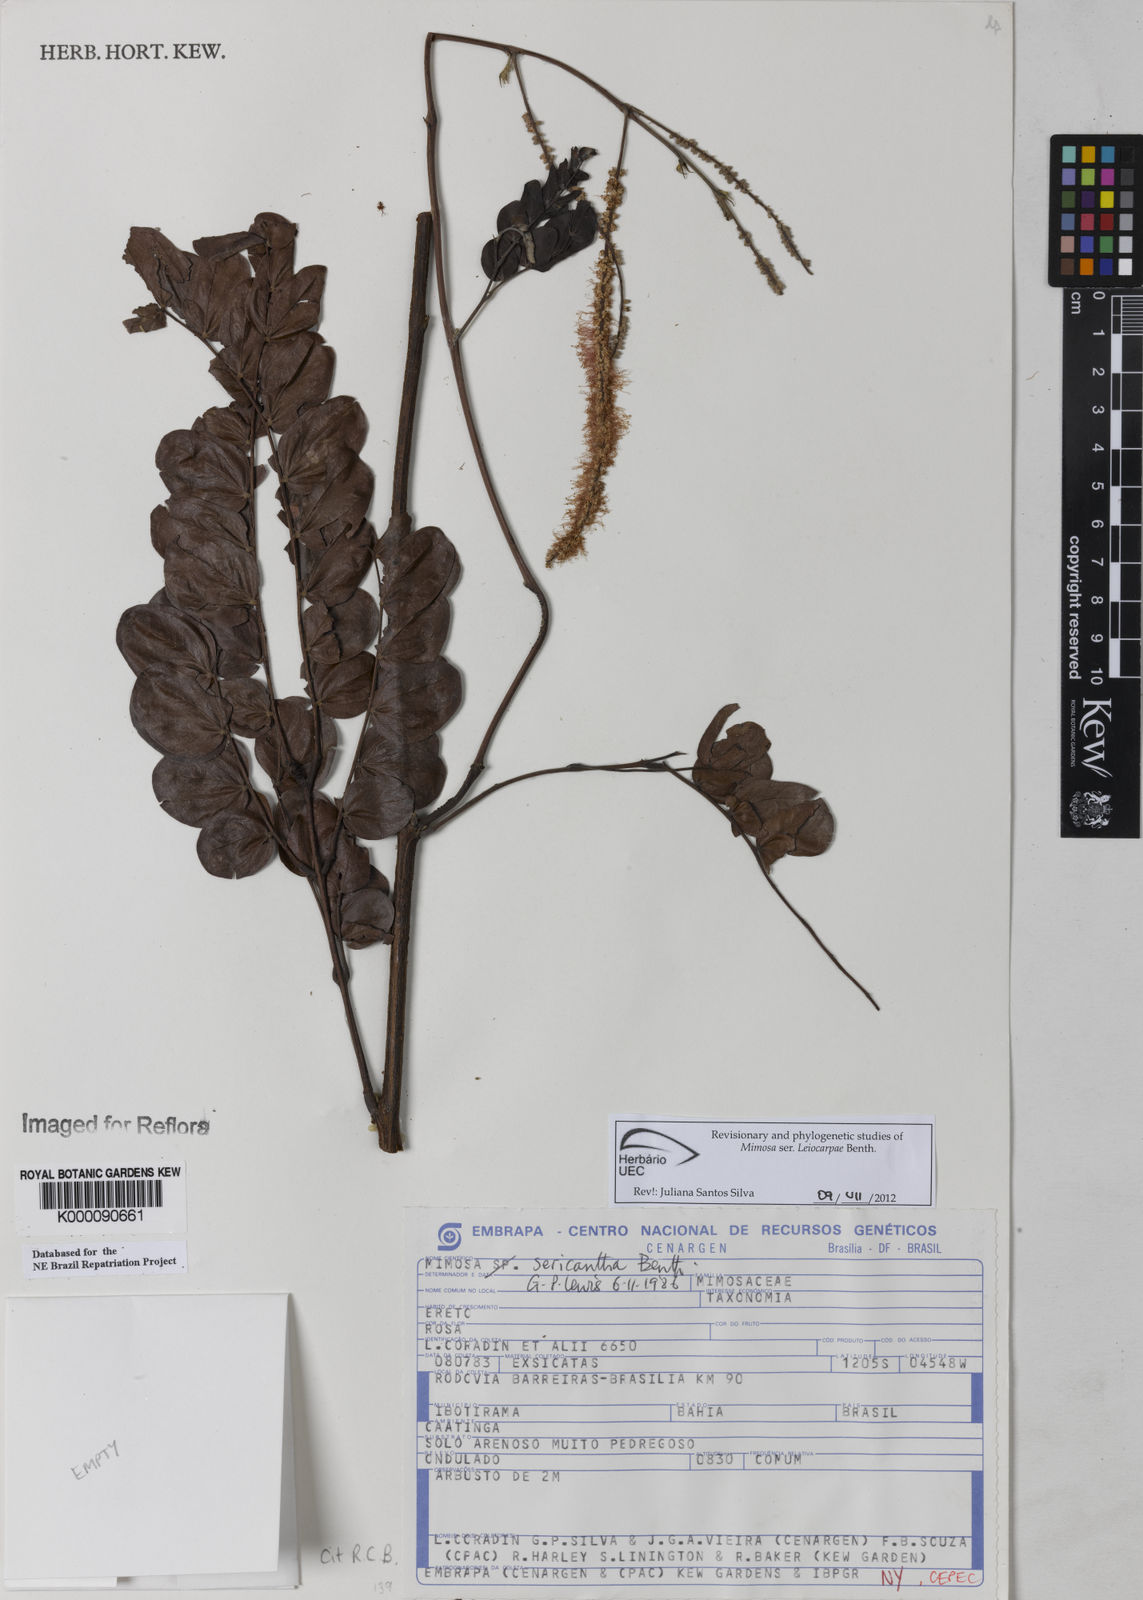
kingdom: Plantae
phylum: Tracheophyta
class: Magnoliopsida
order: Fabales
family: Fabaceae
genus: Mimosa
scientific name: Mimosa sericantha
